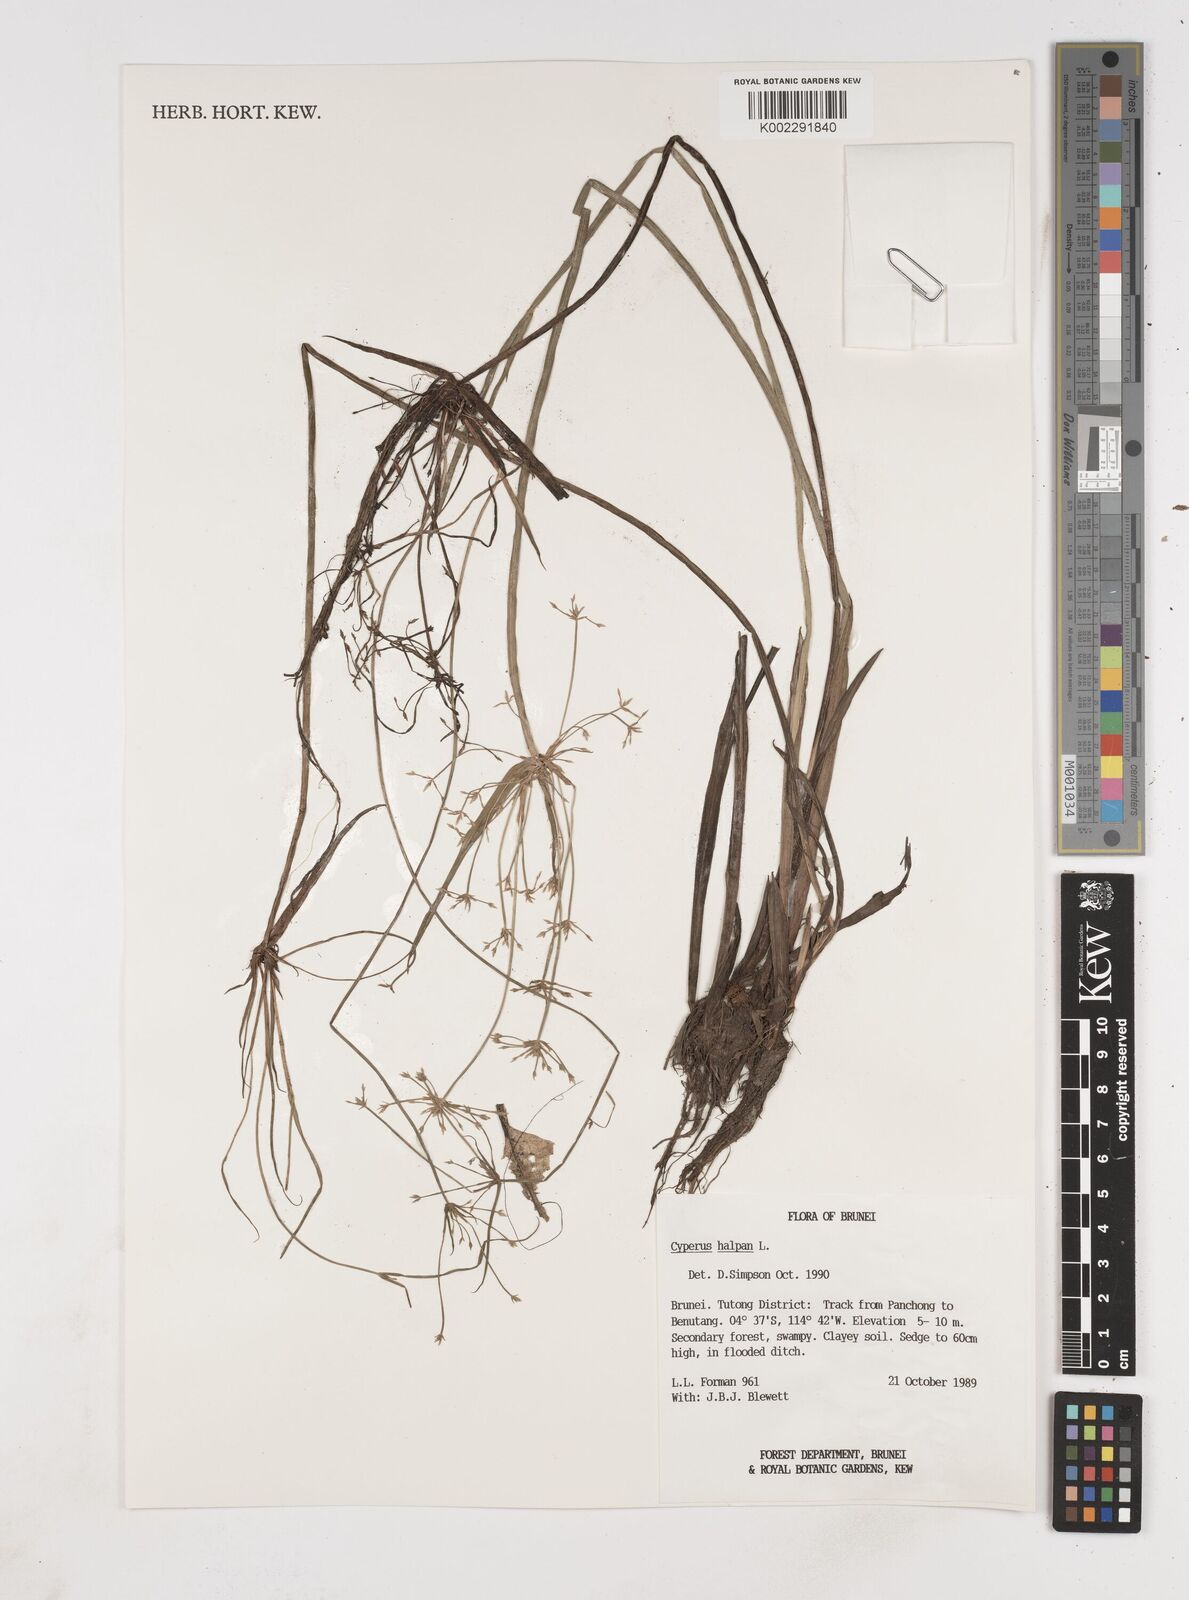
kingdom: Plantae
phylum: Tracheophyta
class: Liliopsida
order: Poales
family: Cyperaceae
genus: Cyperus
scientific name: Cyperus haspan
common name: Haspan flatsedge
